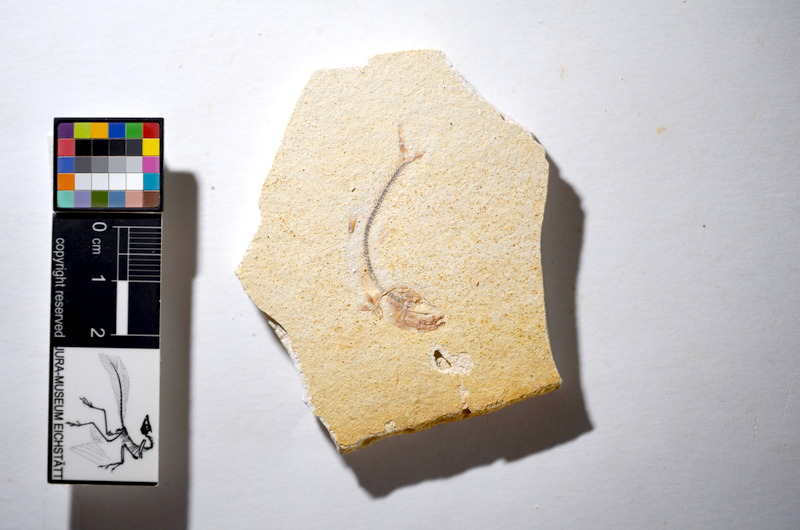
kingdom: Animalia
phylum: Chordata
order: Salmoniformes
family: Orthogonikleithridae
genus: Orthogonikleithrus
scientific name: Orthogonikleithrus hoelli
